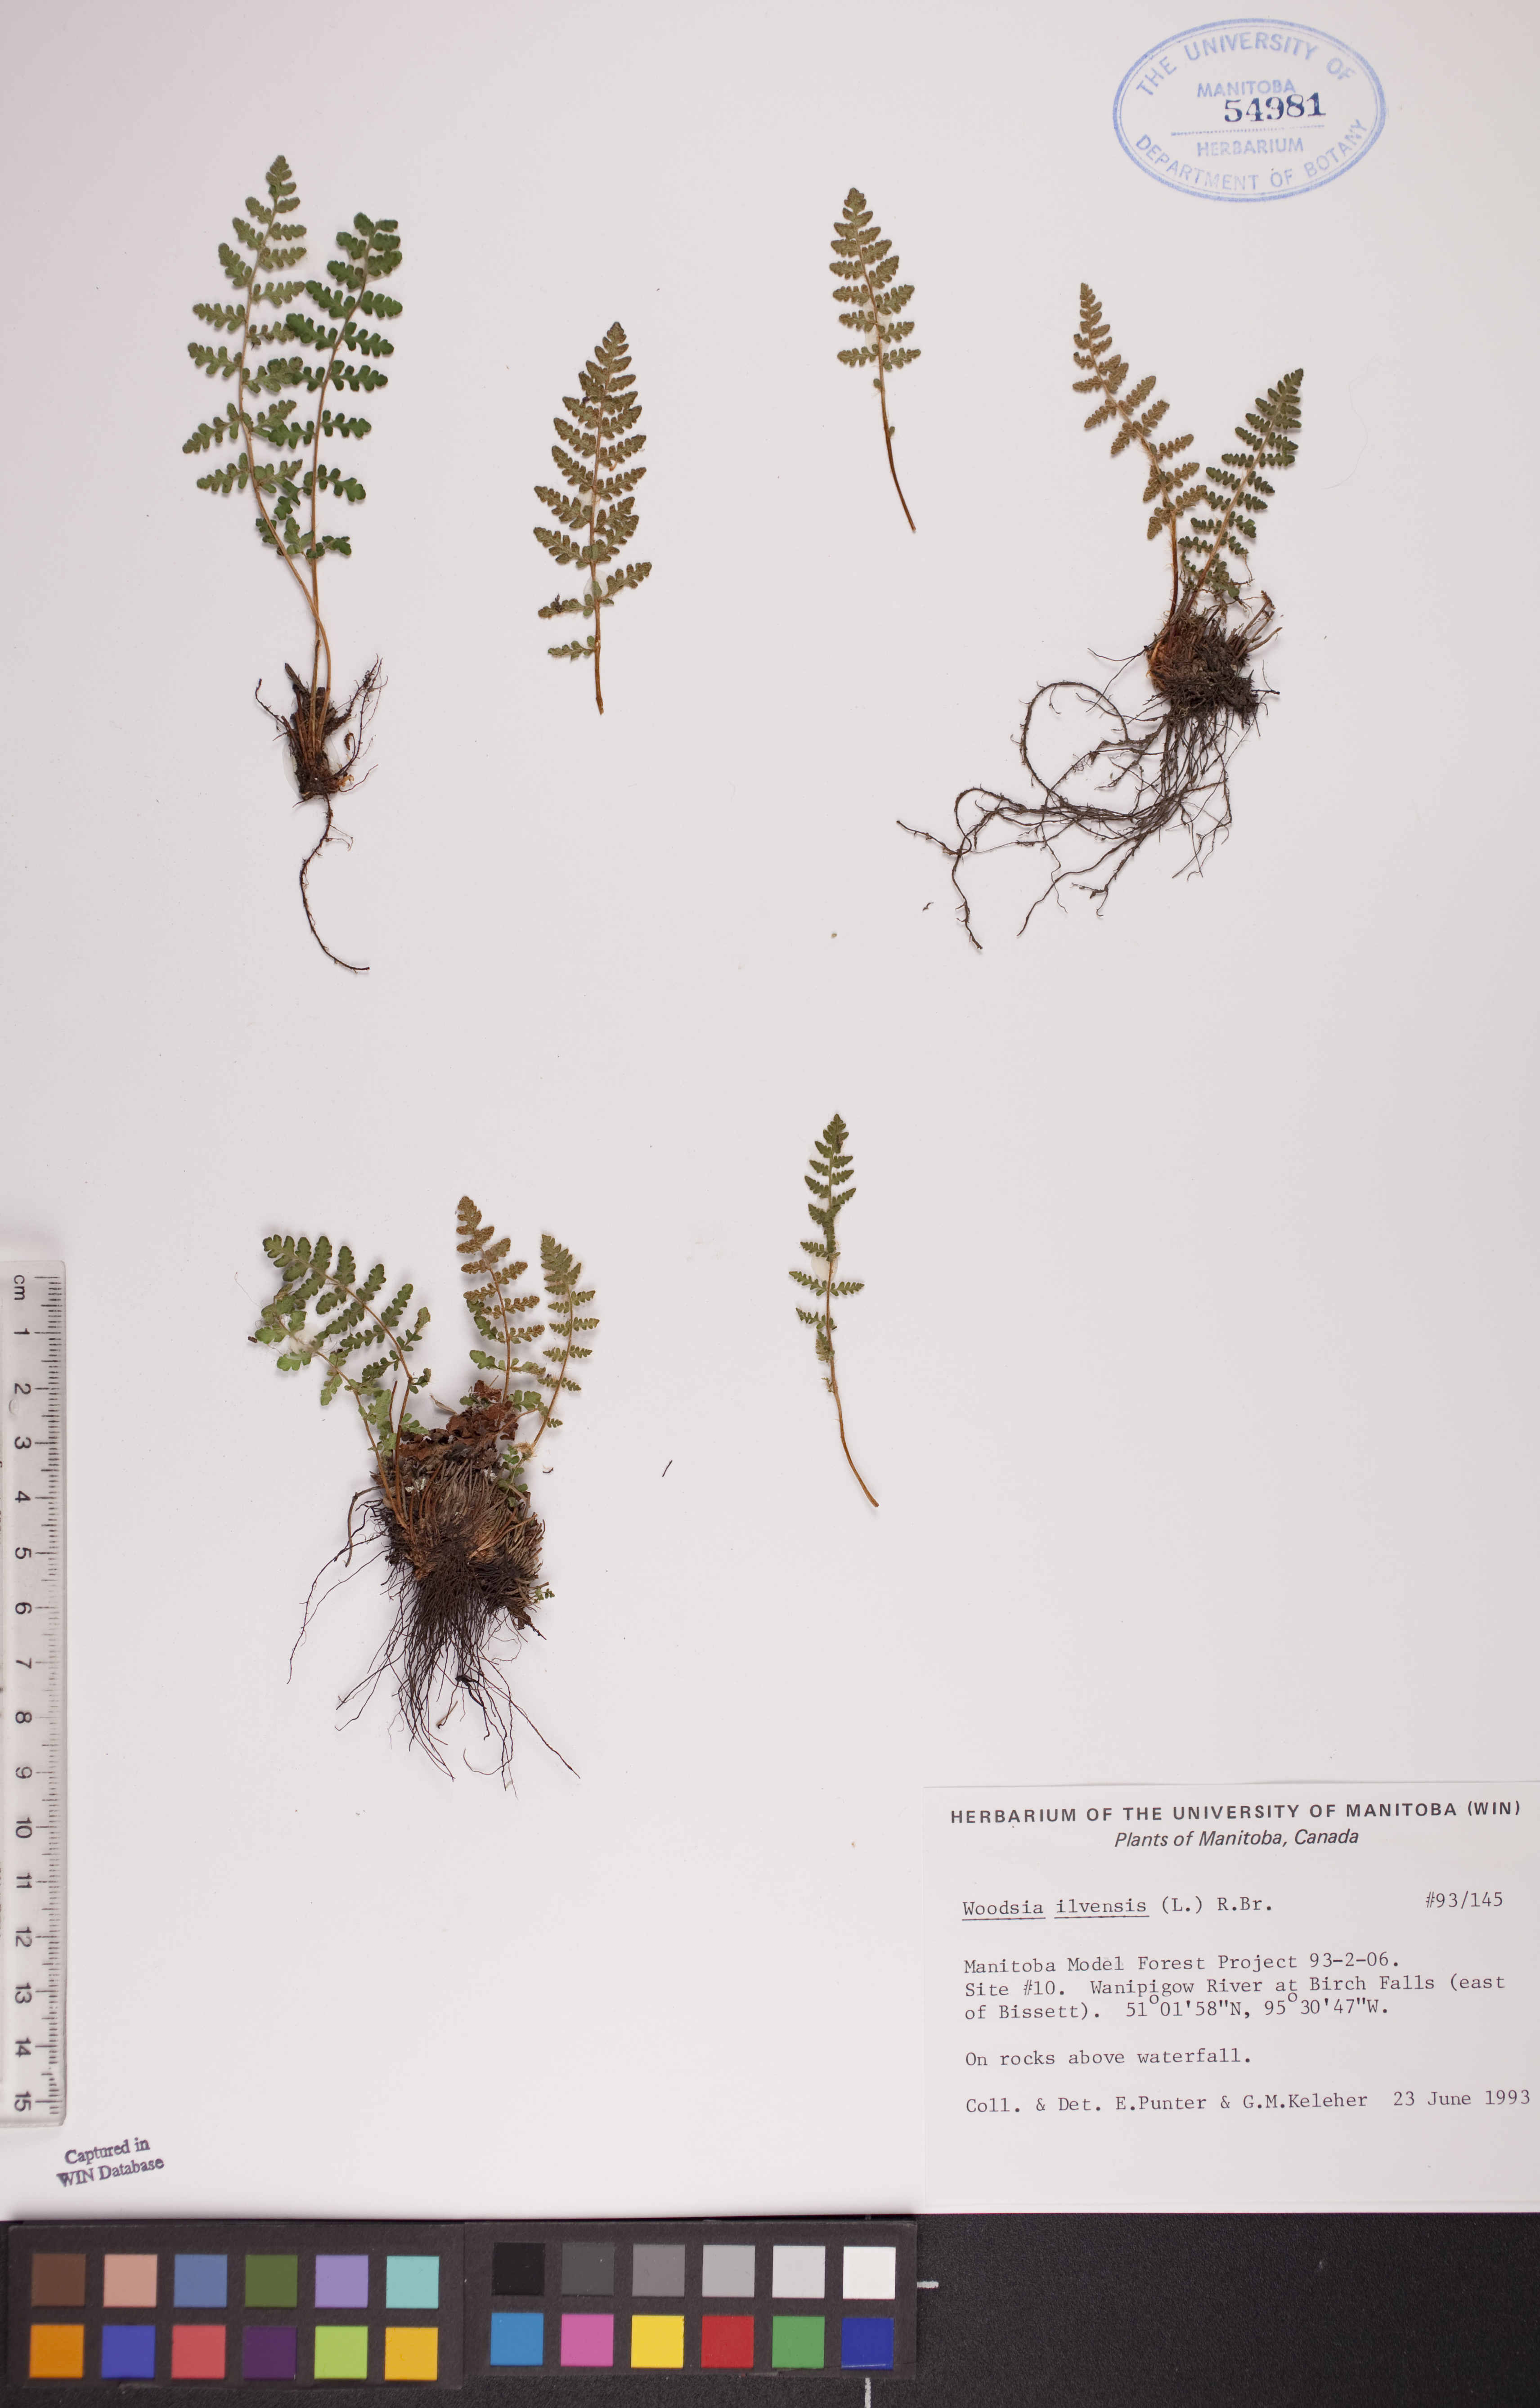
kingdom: Plantae
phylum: Tracheophyta
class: Polypodiopsida
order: Polypodiales
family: Woodsiaceae
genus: Woodsia
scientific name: Woodsia ilvensis
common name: Fragrant woodsia
